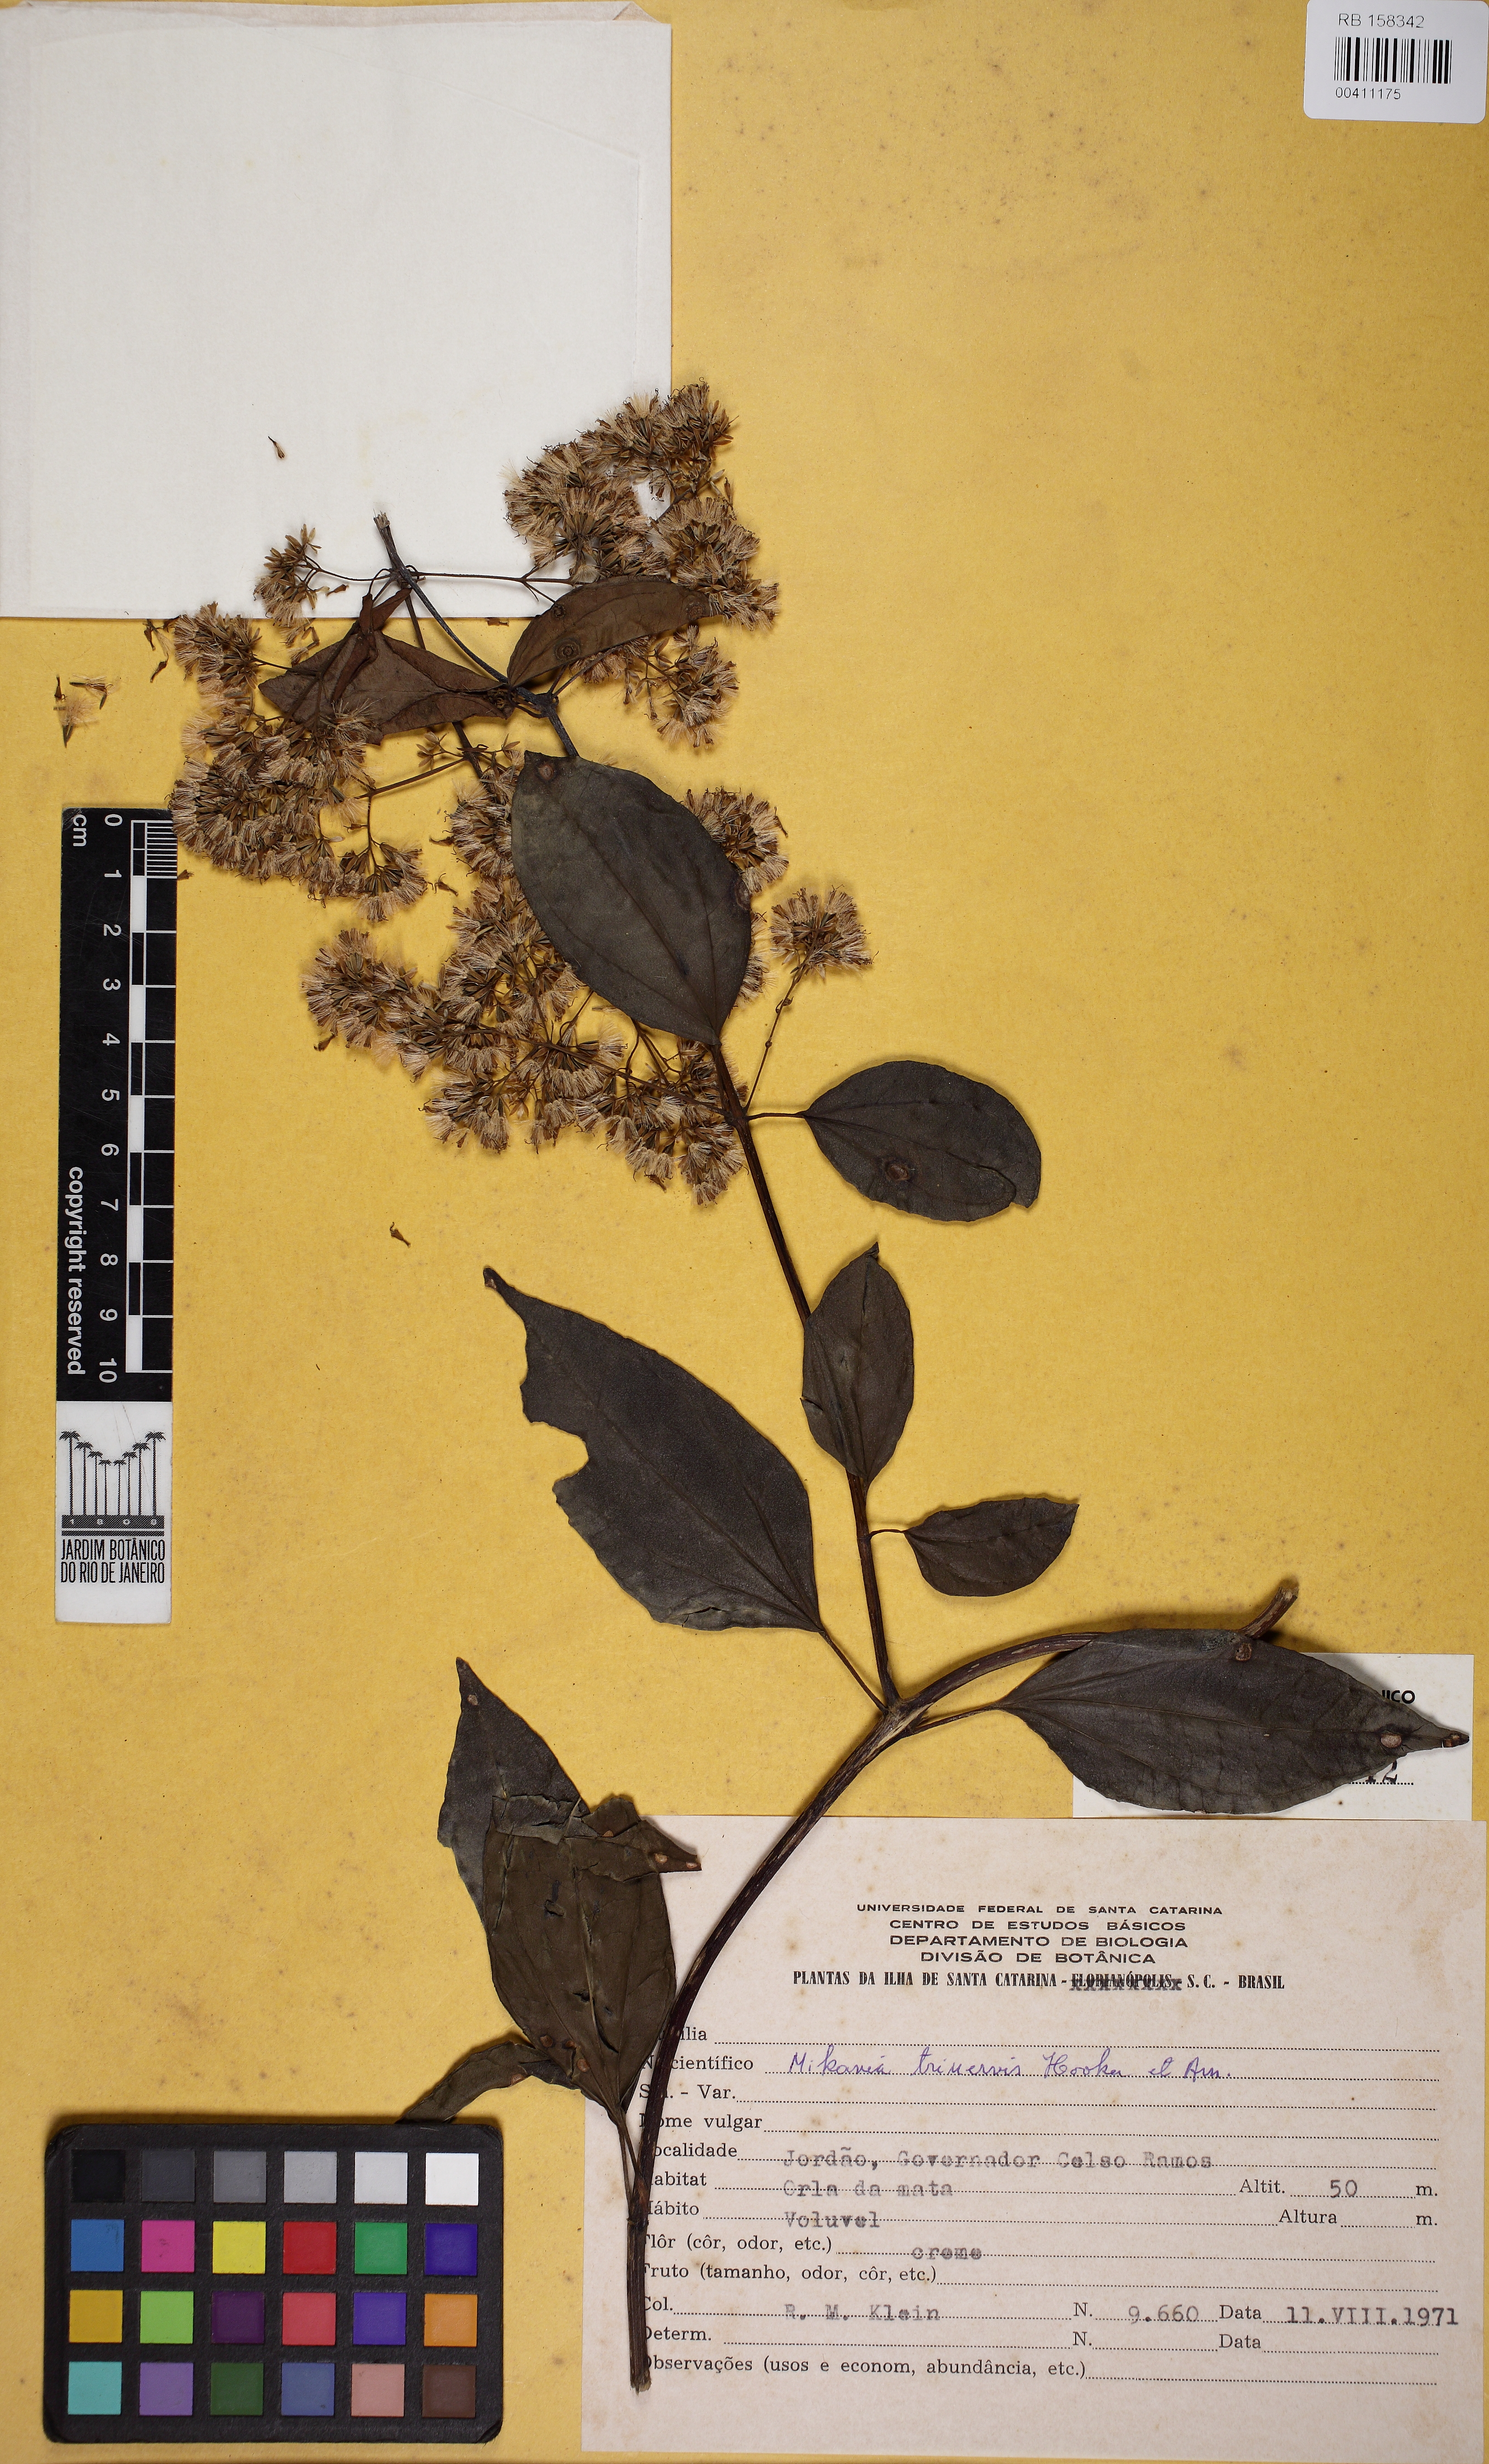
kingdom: Plantae
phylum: Tracheophyta
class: Magnoliopsida
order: Asterales
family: Asteraceae
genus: Mikania
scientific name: Mikania trinervis
